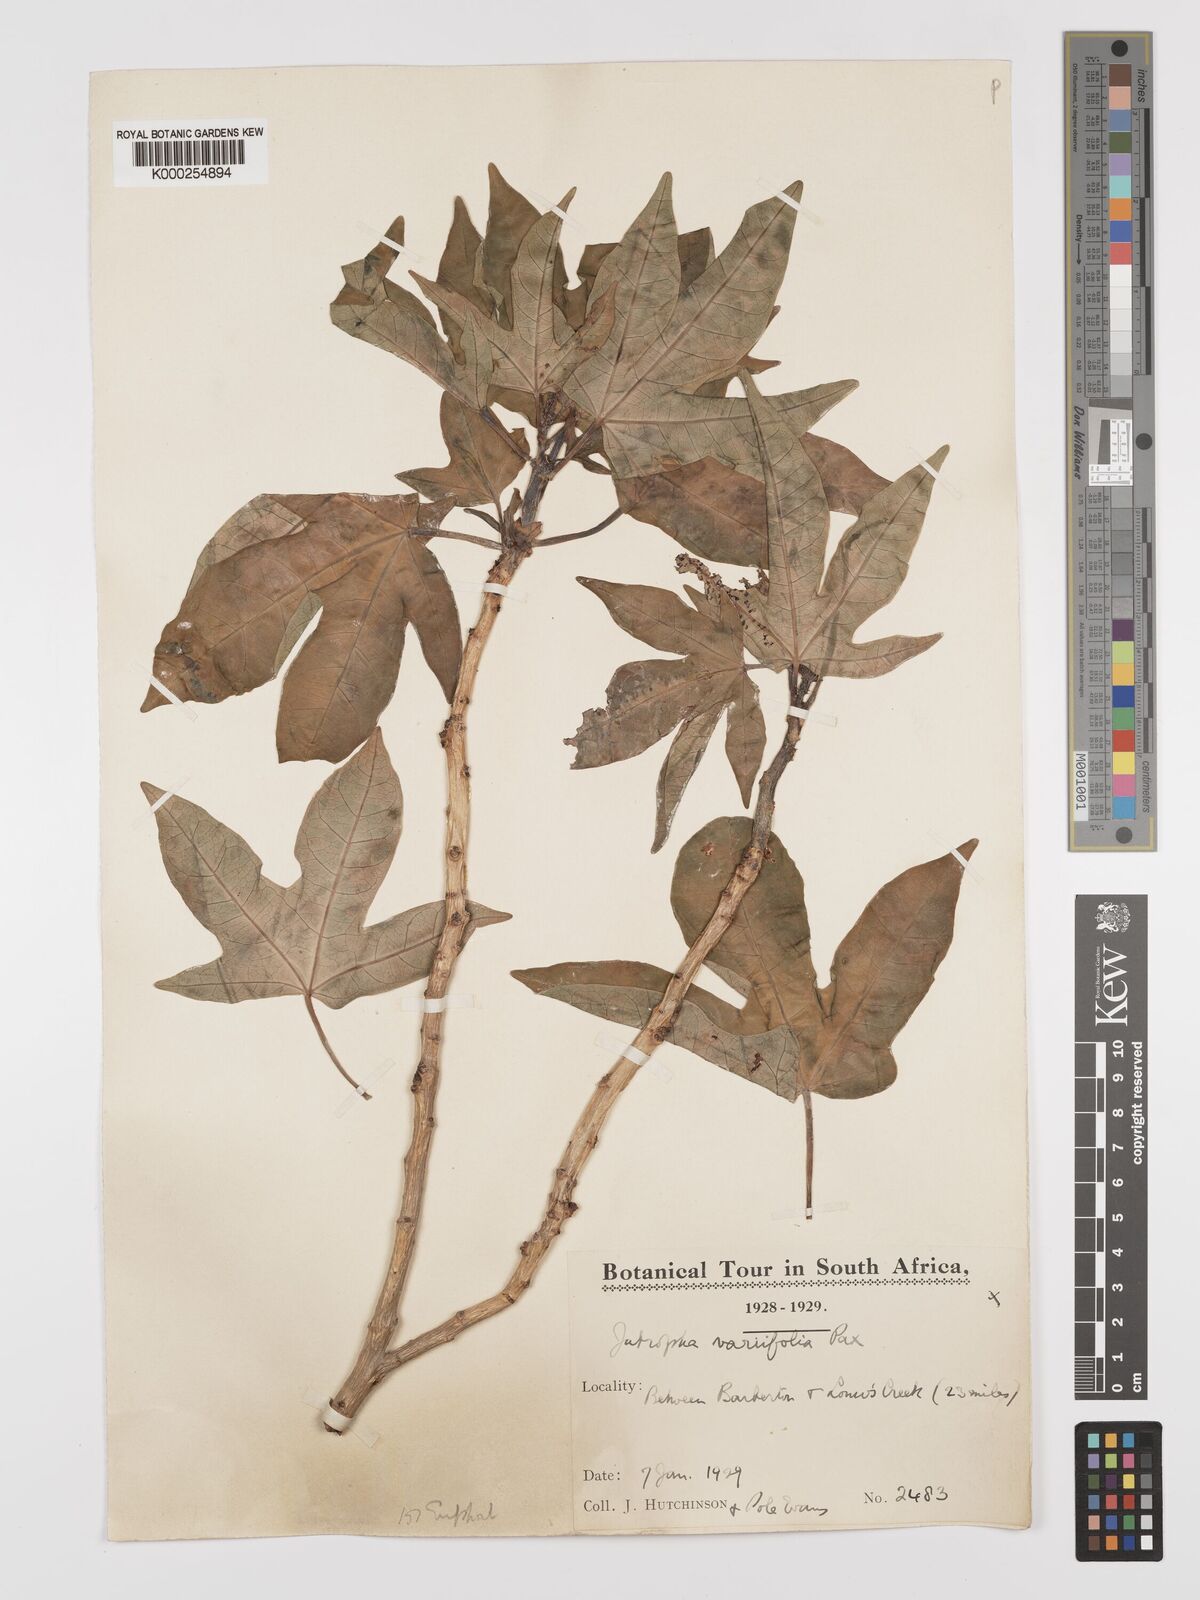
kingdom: Plantae
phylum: Tracheophyta
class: Magnoliopsida
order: Malpighiales
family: Euphorbiaceae
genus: Jatropha
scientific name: Jatropha variifolia
